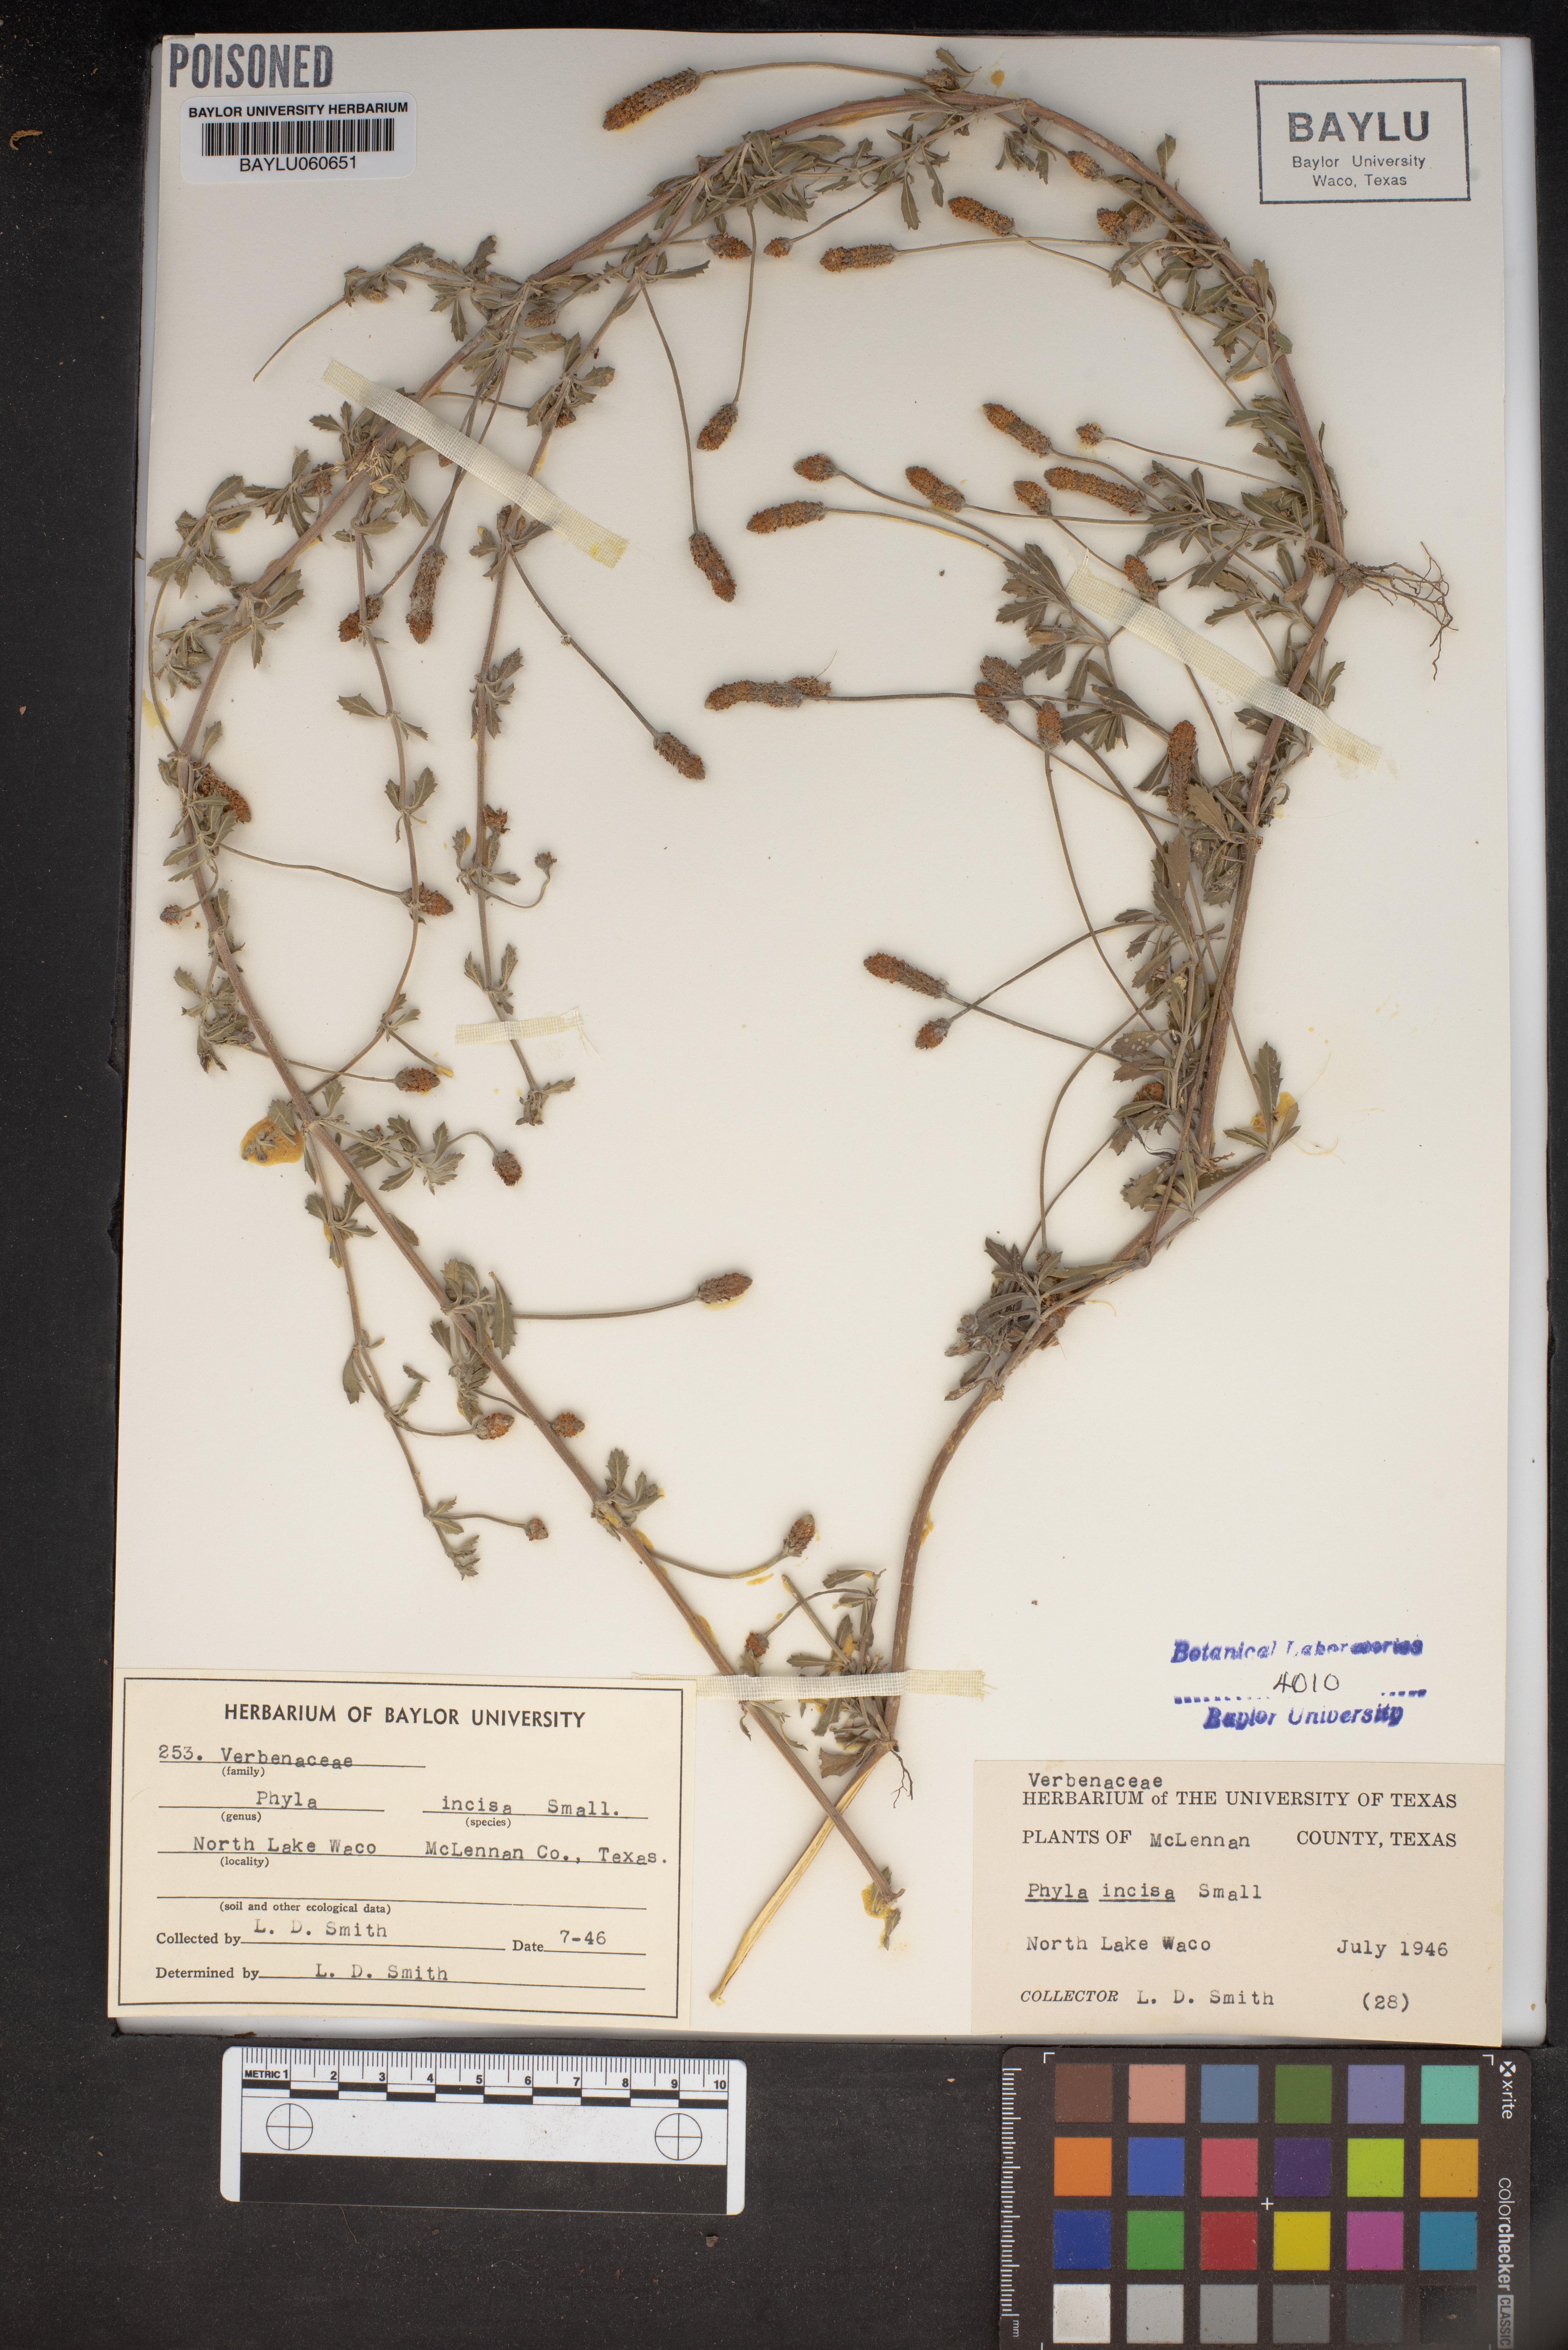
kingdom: Plantae
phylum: Tracheophyta
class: Magnoliopsida
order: Lamiales
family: Verbenaceae
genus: Phyla
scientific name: Phyla nodiflora
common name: Frogfruit
